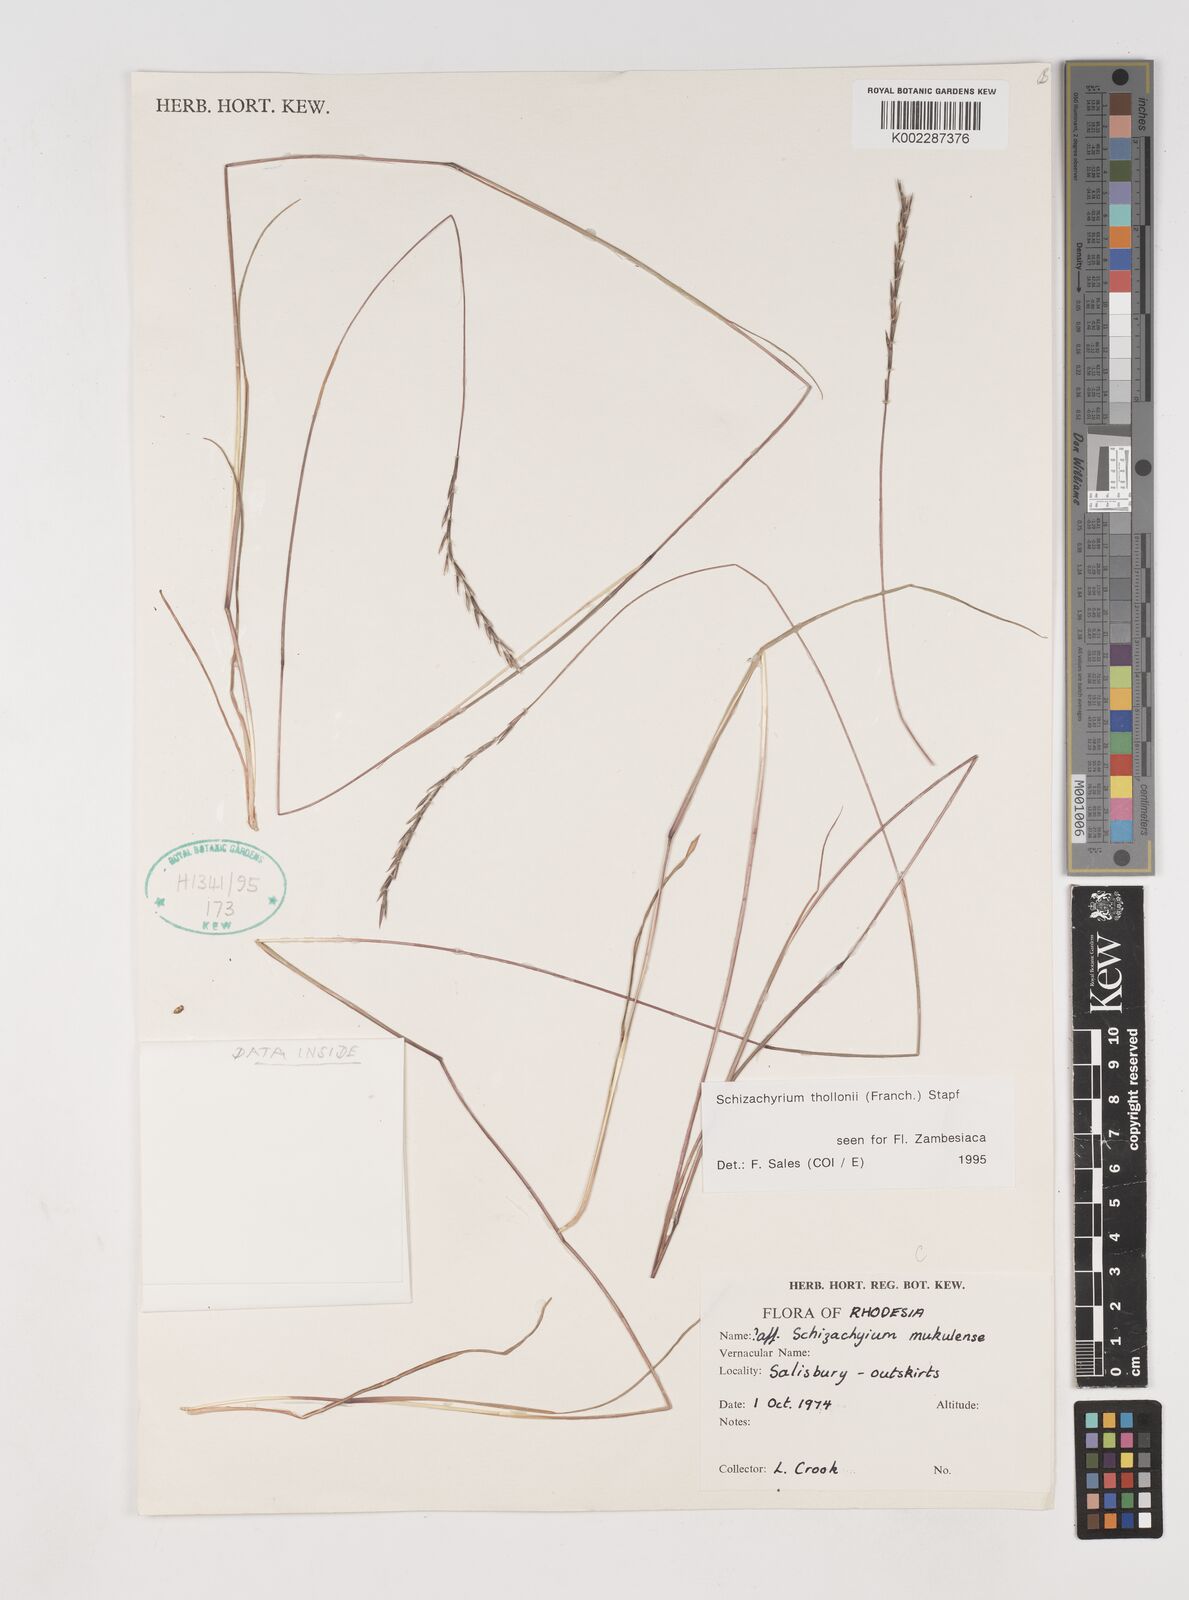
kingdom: Plantae
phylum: Tracheophyta
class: Liliopsida
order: Poales
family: Poaceae
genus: Schizachyrium
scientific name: Schizachyrium thollonii
